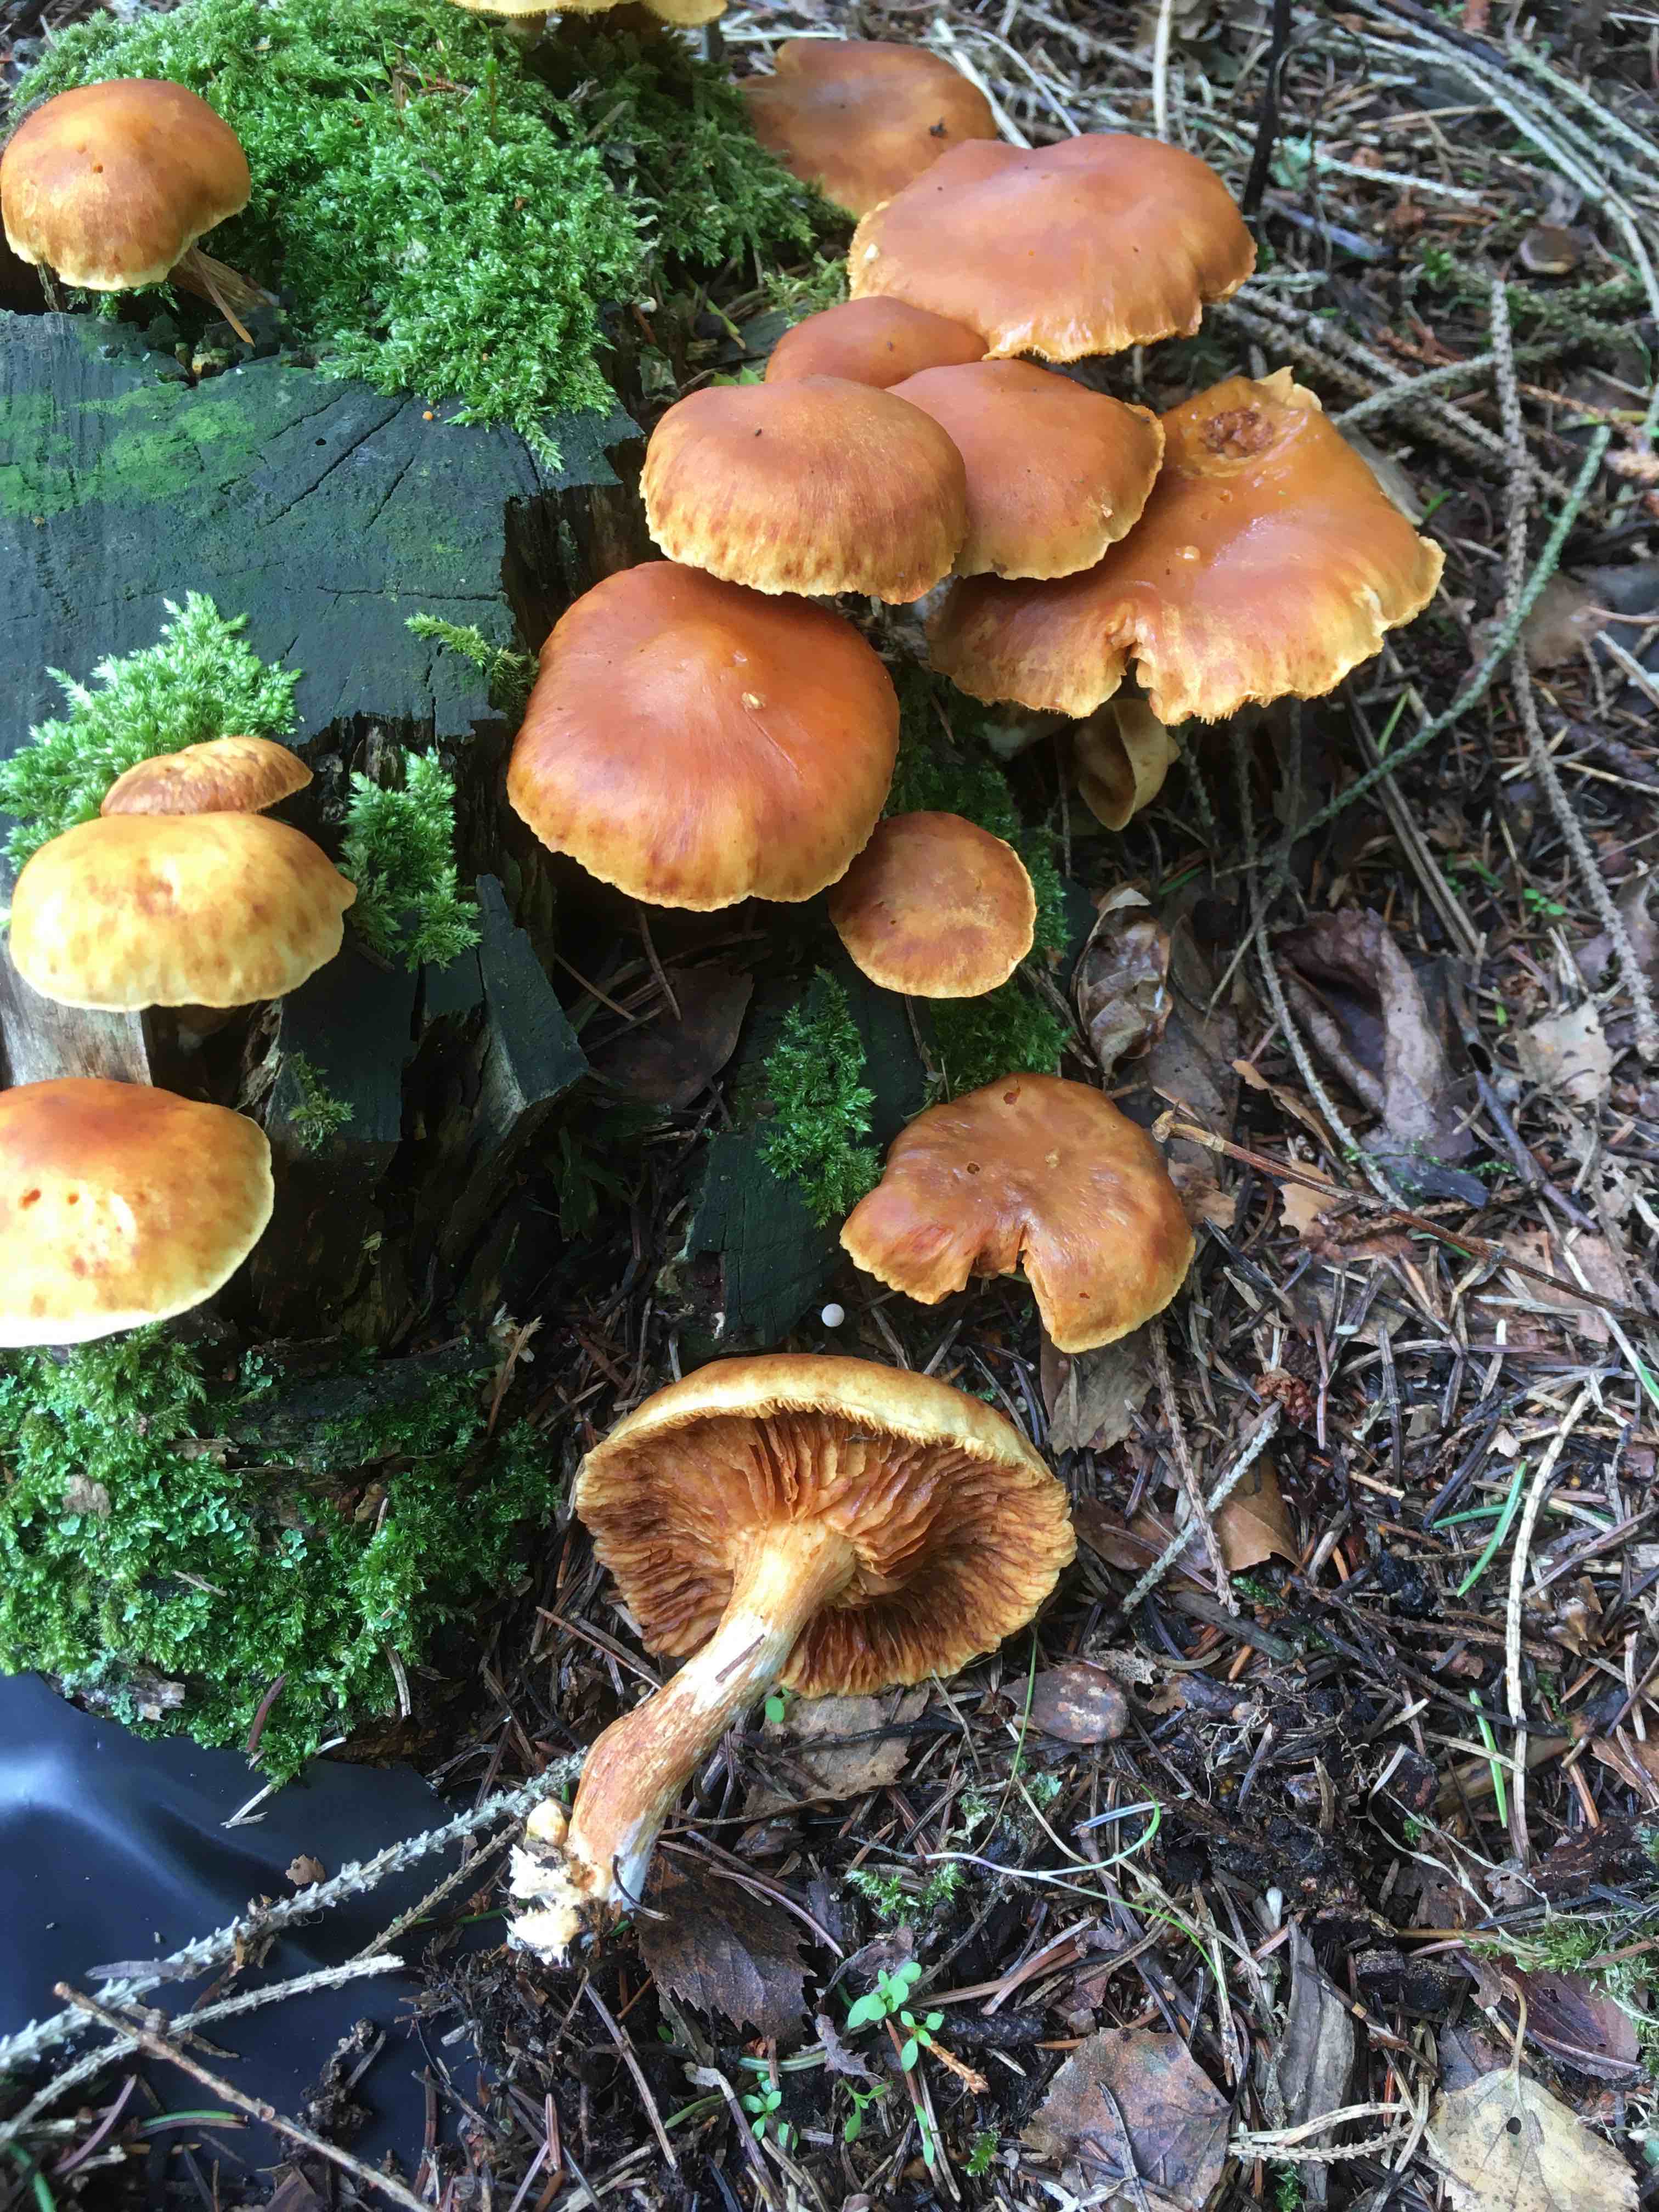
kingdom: Fungi
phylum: Basidiomycota
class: Agaricomycetes
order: Agaricales
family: Hymenogastraceae
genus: Gymnopilus
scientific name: Gymnopilus penetrans
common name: plettet flammehat
